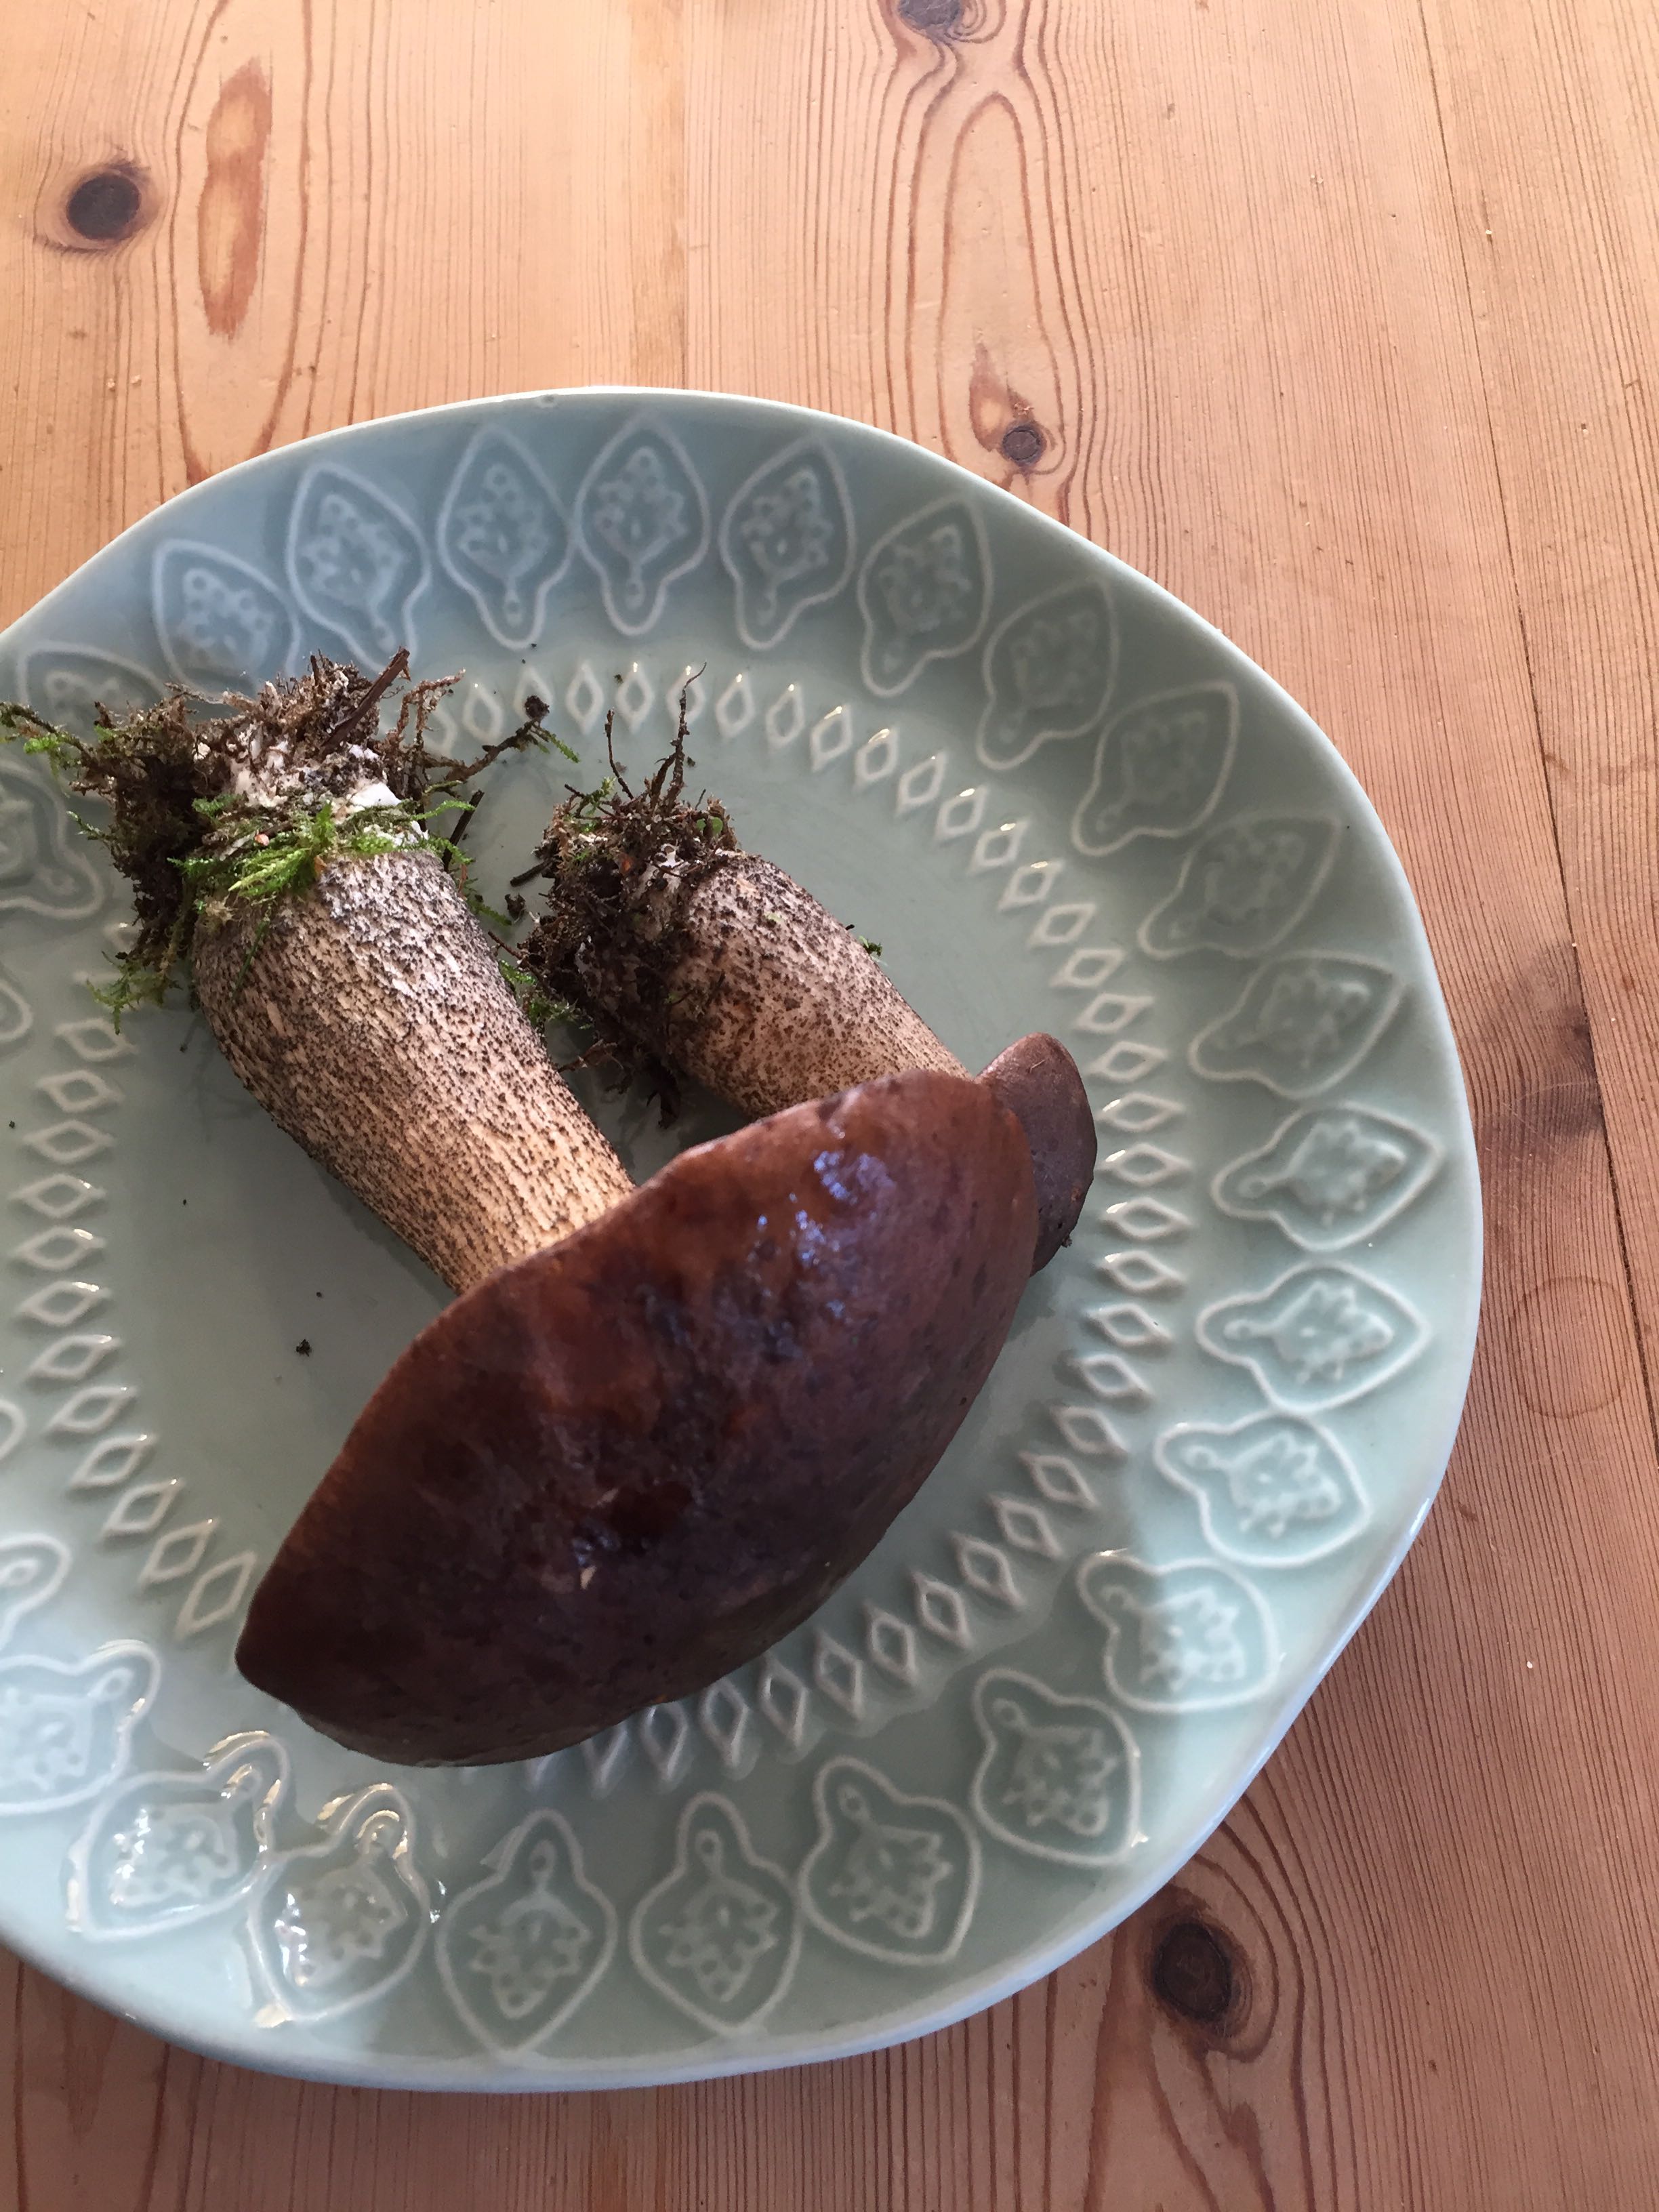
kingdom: Fungi
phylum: Basidiomycota
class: Agaricomycetes
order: Boletales
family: Boletaceae
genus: Leccinum
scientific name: Leccinum scabrum
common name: brun skælrørhat
